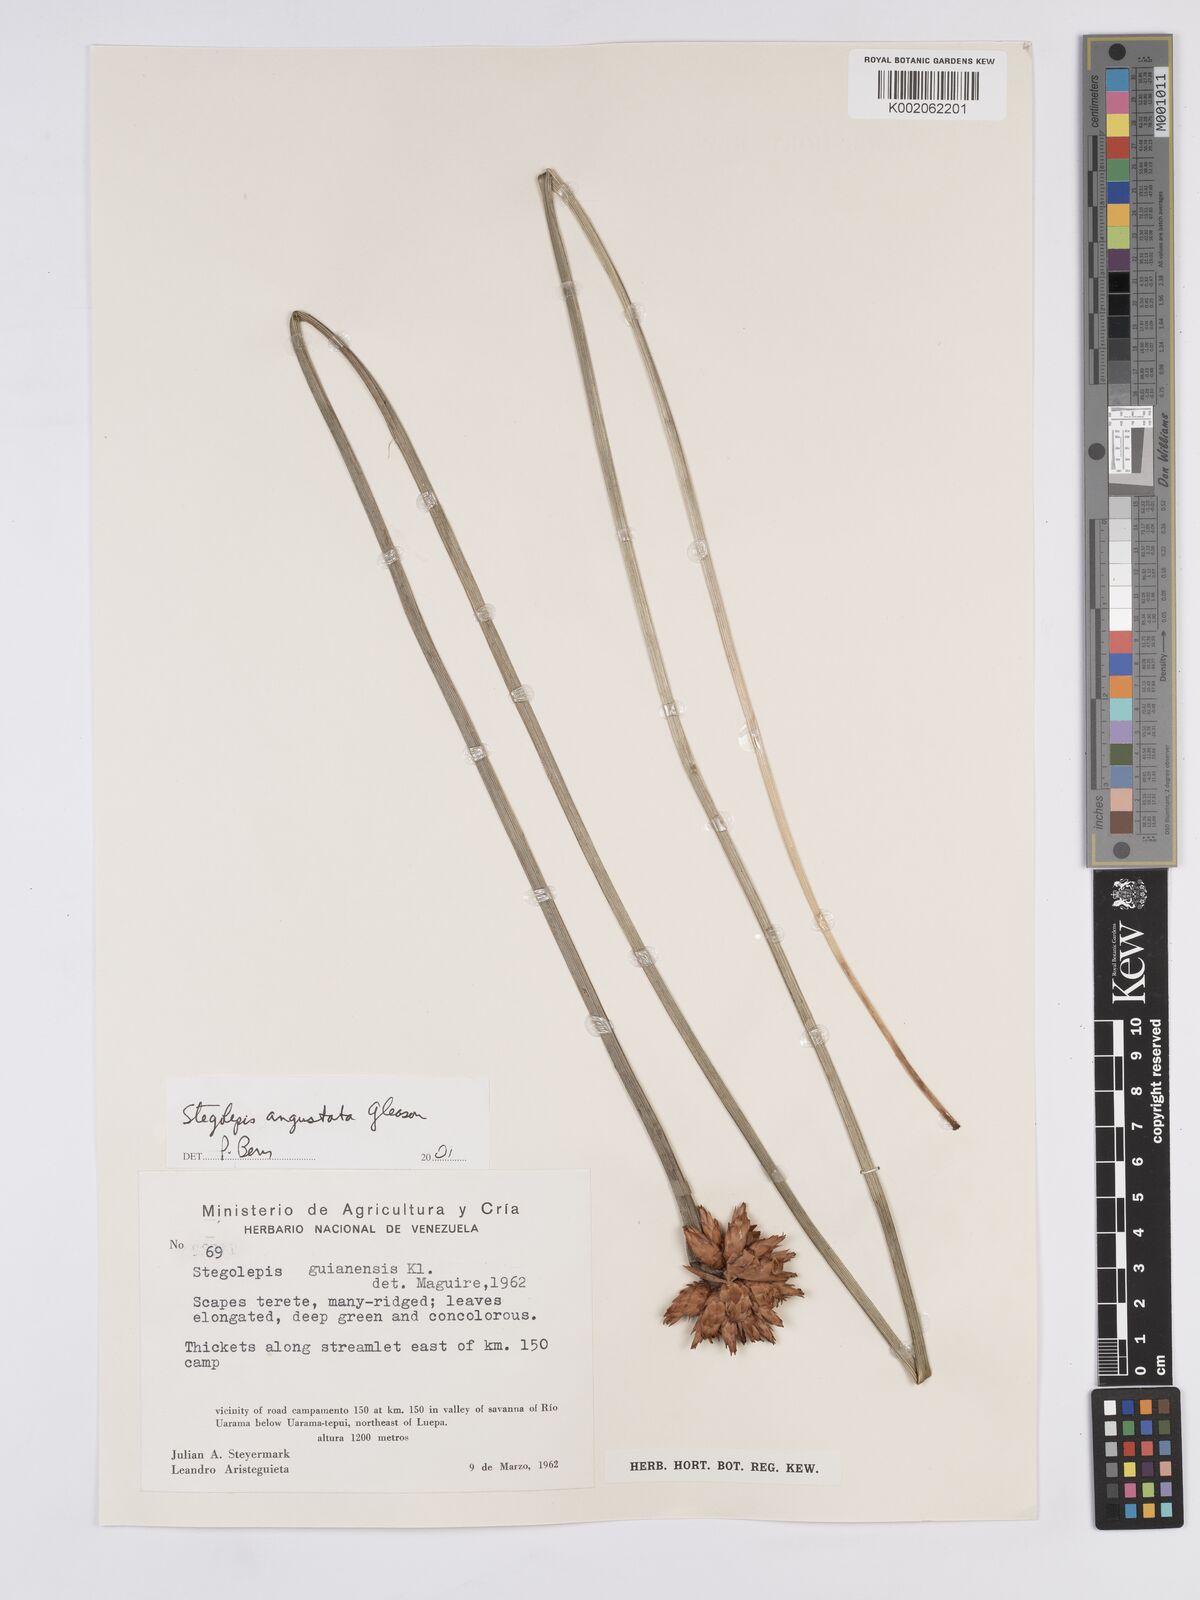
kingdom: Plantae
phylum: Tracheophyta
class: Liliopsida
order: Poales
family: Rapateaceae
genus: Stegolepis
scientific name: Stegolepis angustata
